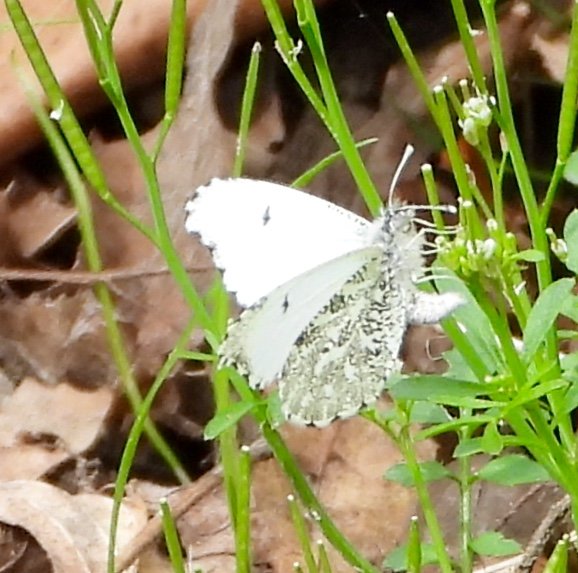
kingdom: Animalia
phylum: Arthropoda
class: Insecta
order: Lepidoptera
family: Pieridae
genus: Anthocharis
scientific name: Anthocharis midea
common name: Falcate Orangetip
